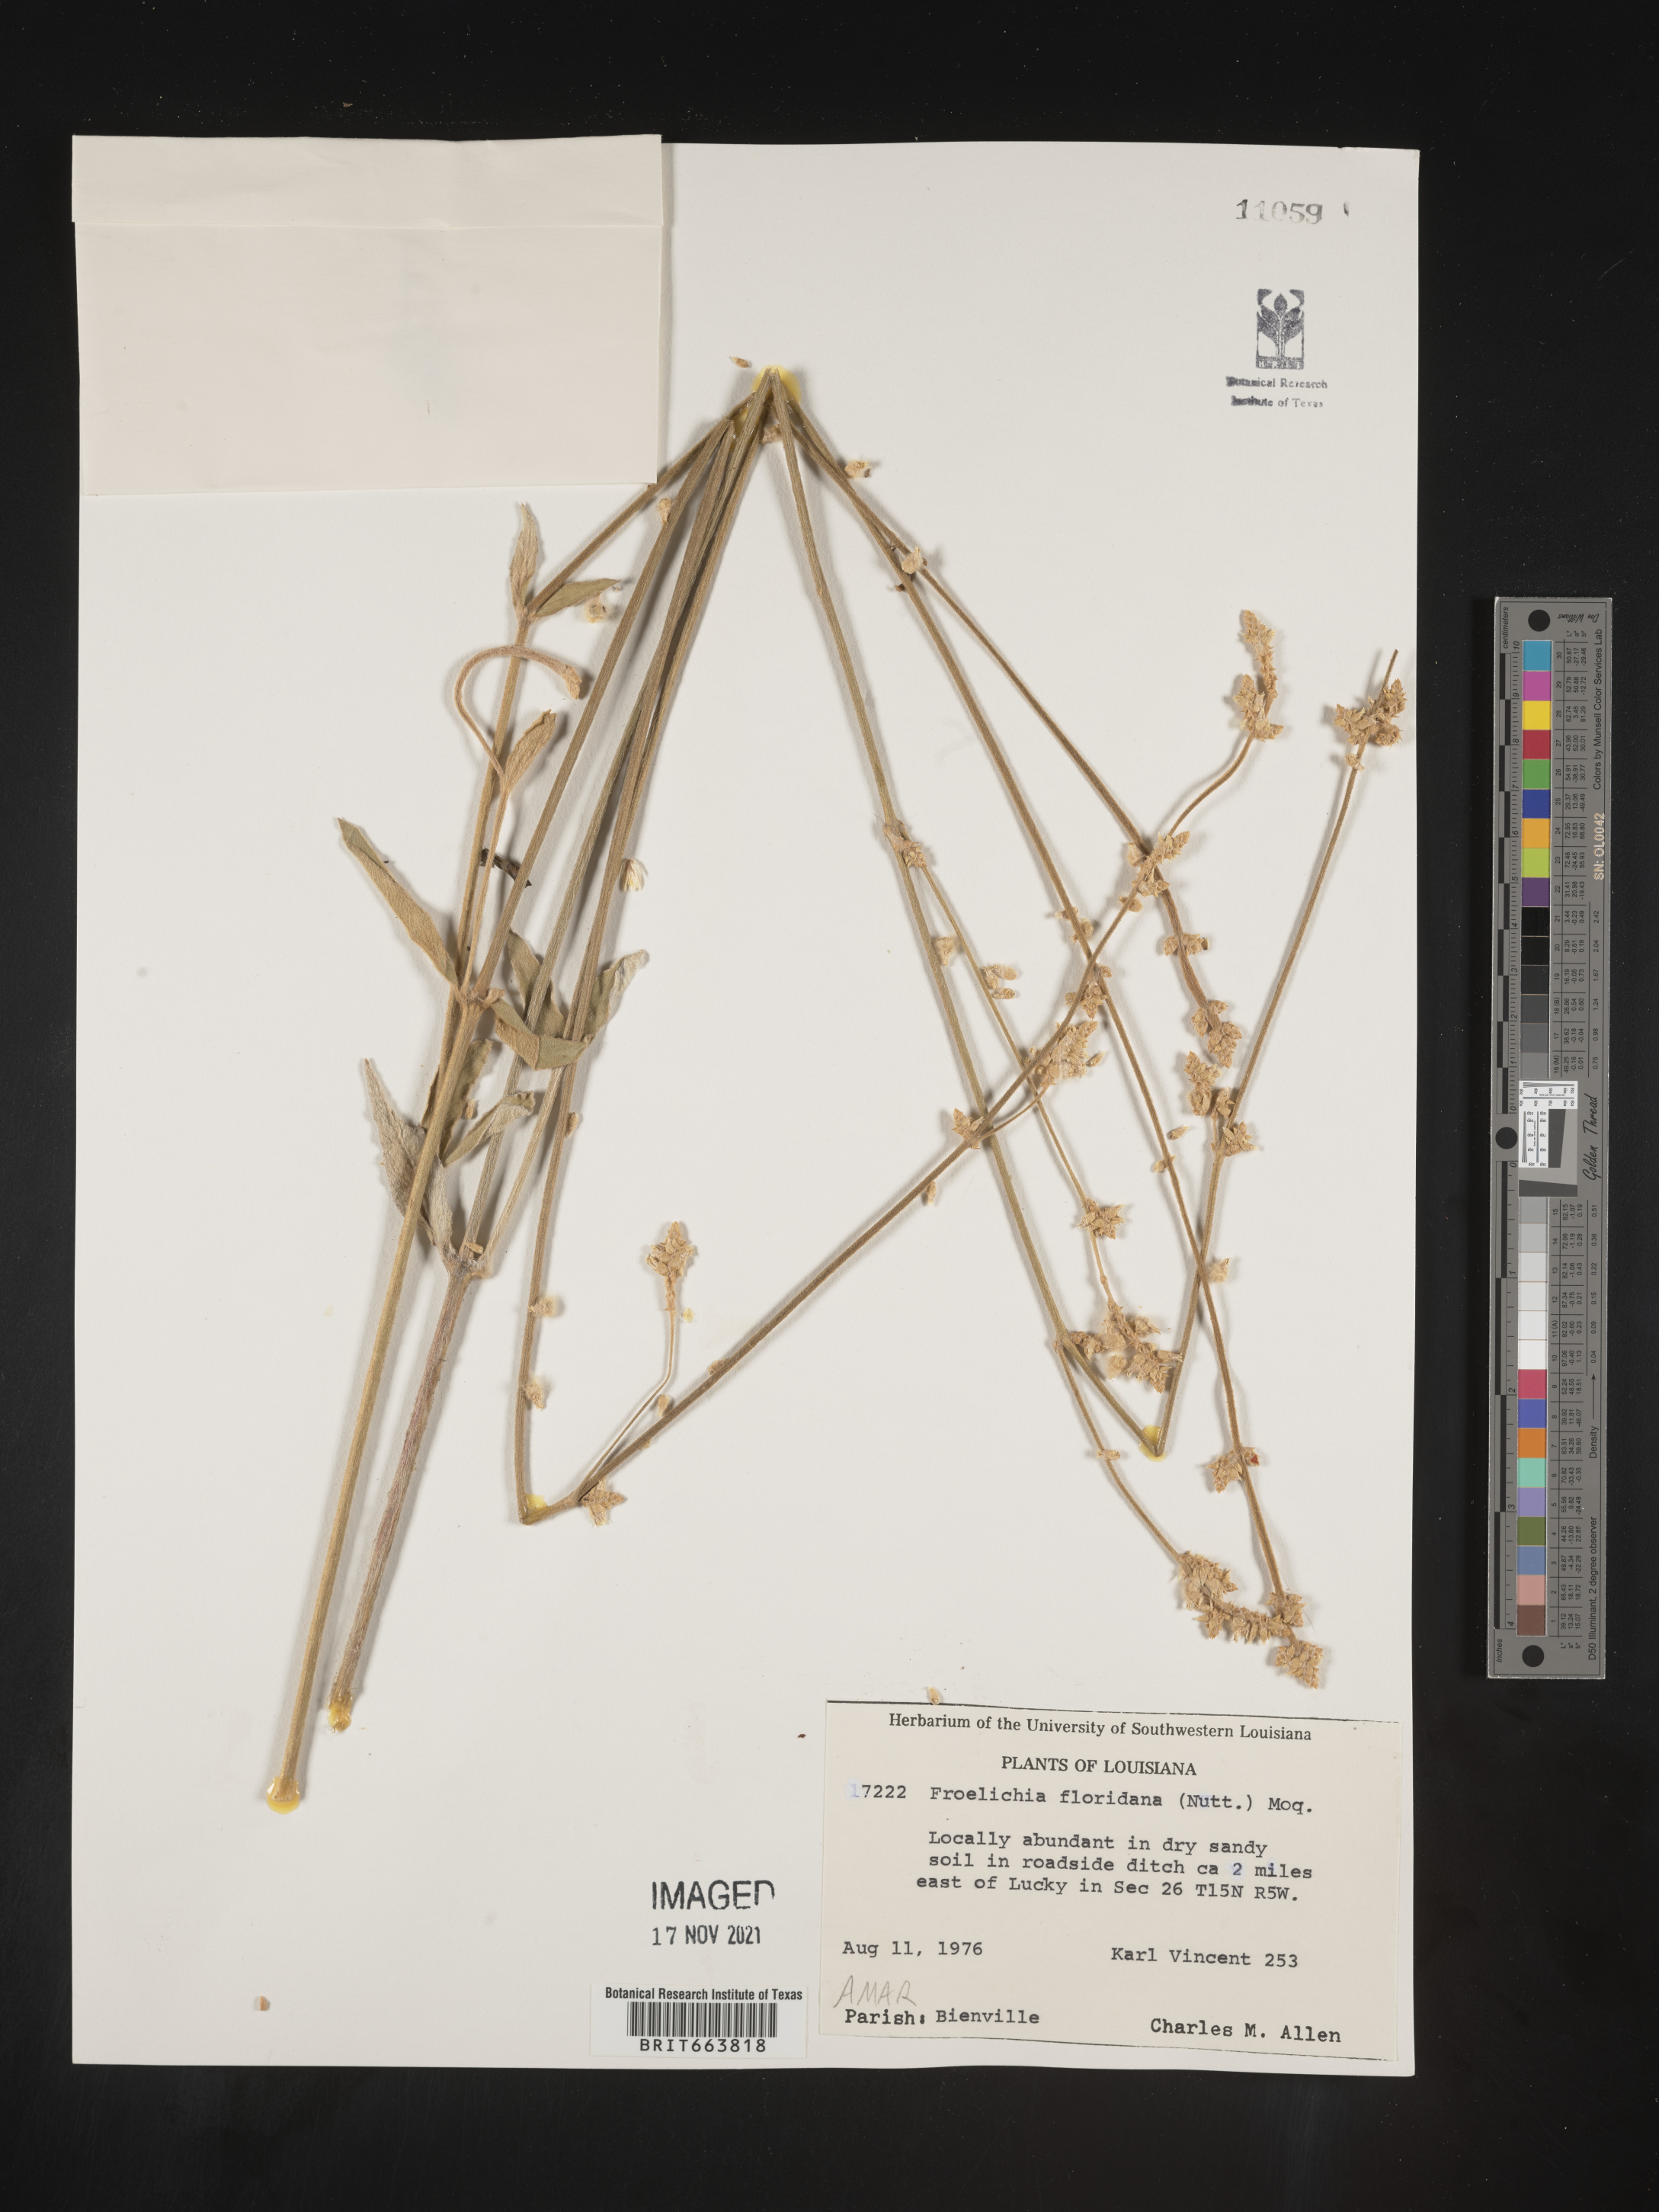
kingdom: Plantae
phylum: Tracheophyta
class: Magnoliopsida
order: Caryophyllales
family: Amaranthaceae
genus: Froelichia
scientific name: Froelichia floridana
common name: Florida snake-cotton
